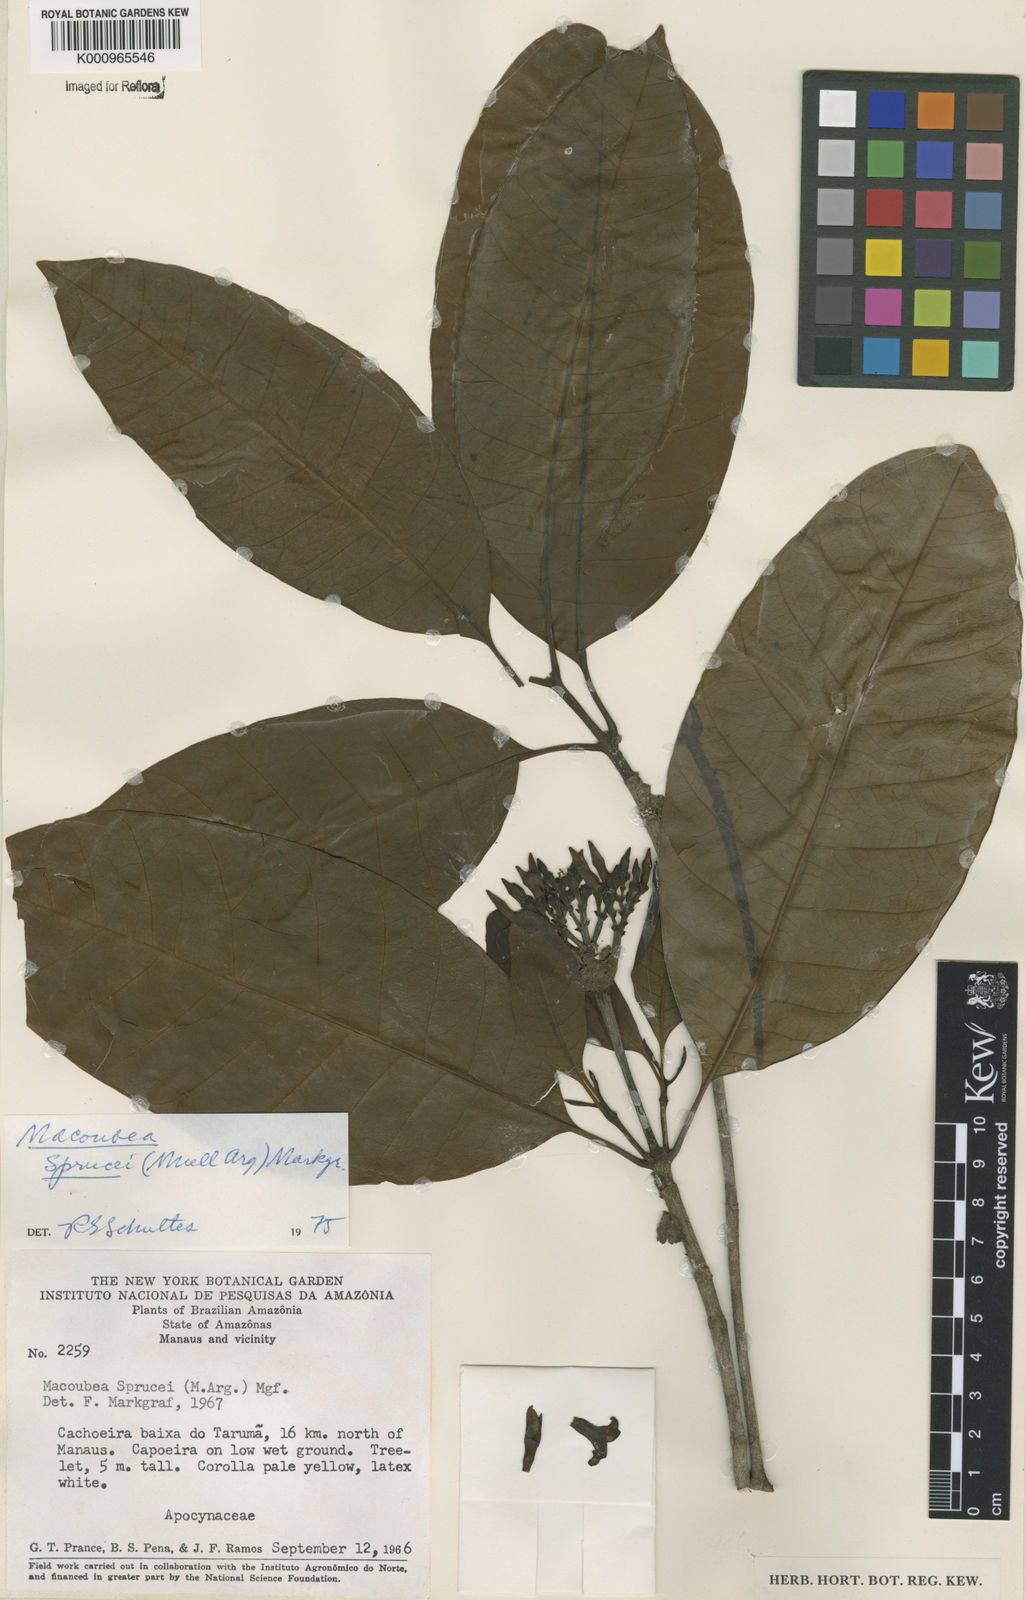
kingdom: Plantae
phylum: Tracheophyta
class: Magnoliopsida
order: Gentianales
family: Apocynaceae
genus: Macoubea
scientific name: Macoubea
